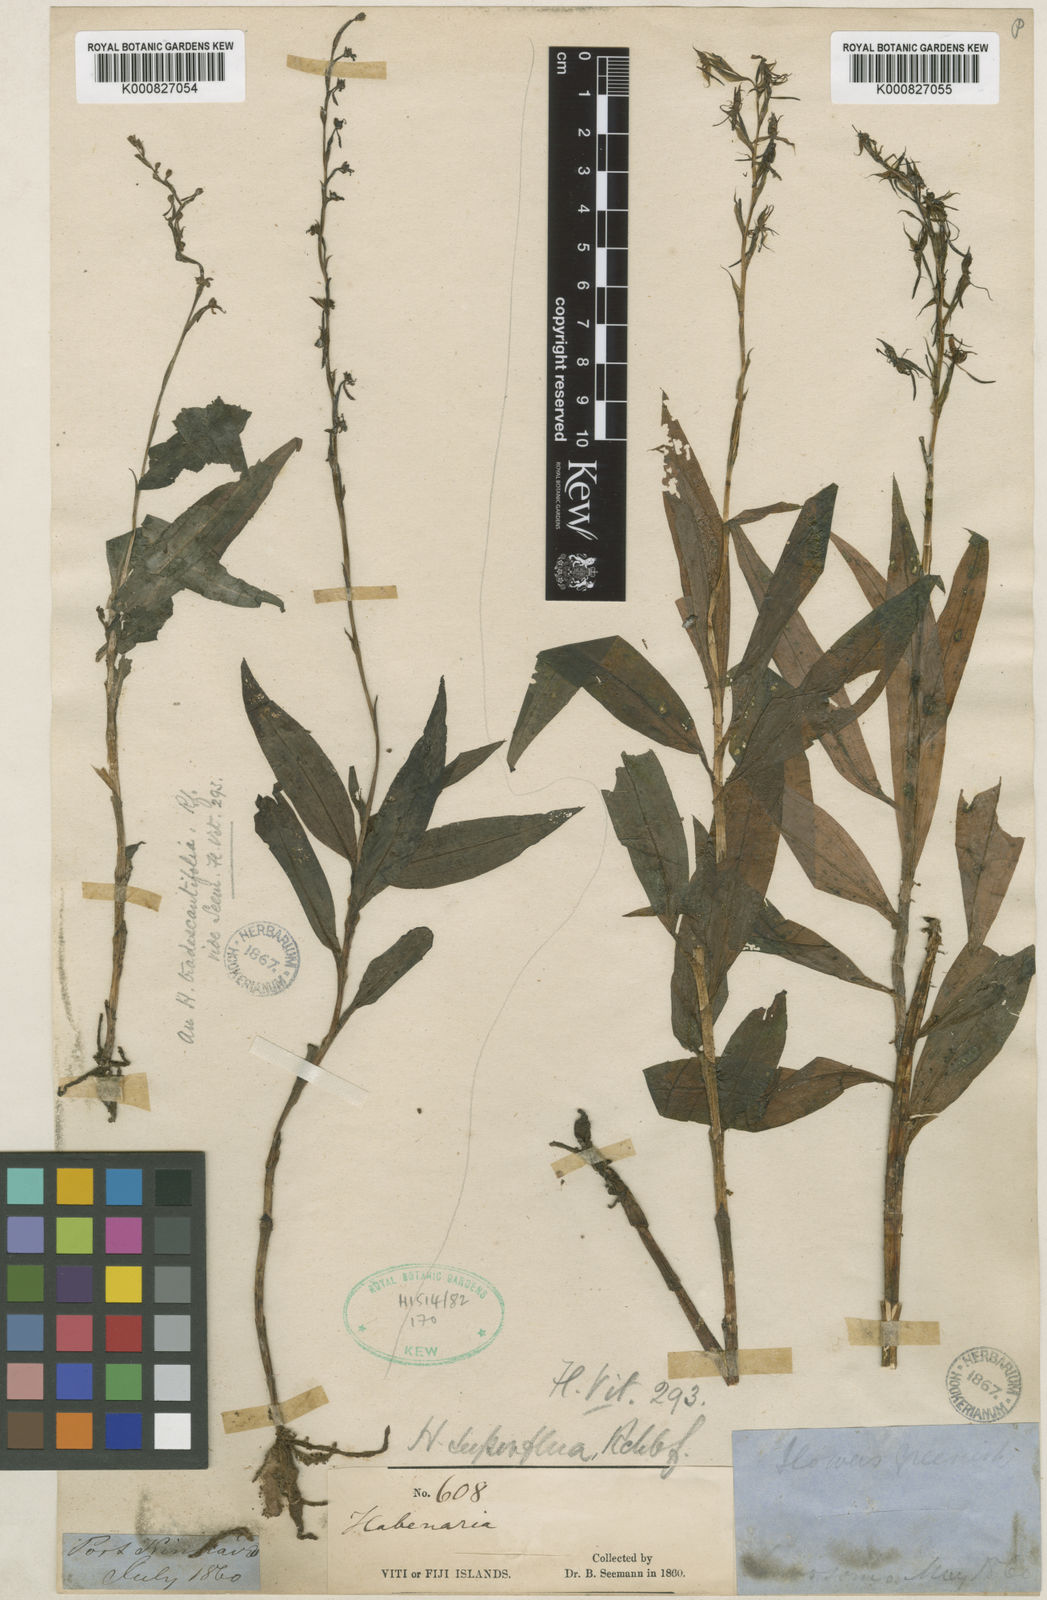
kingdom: Plantae
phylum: Tracheophyta
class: Liliopsida
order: Asparagales
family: Orchidaceae
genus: Habenaria
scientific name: Habenaria superflua
